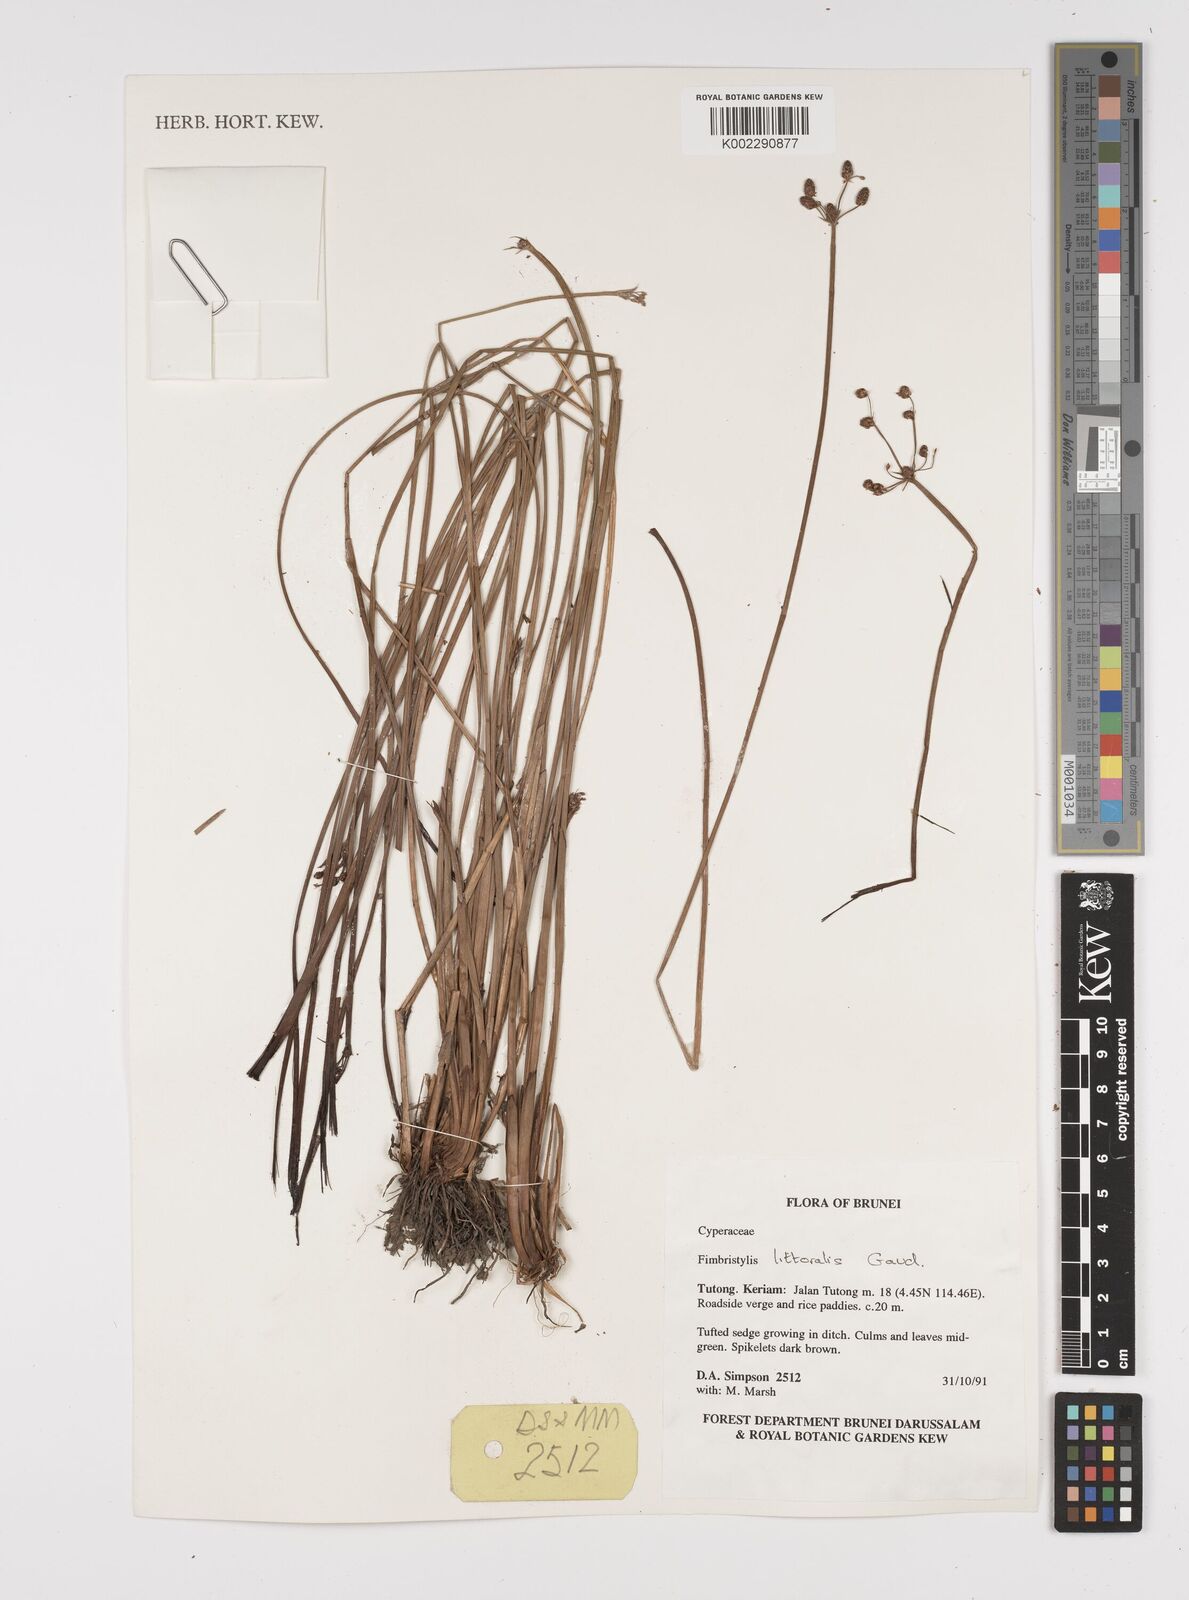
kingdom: Plantae
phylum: Tracheophyta
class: Liliopsida
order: Poales
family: Cyperaceae
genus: Fimbristylis
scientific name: Fimbristylis littoralis
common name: Fimbry
